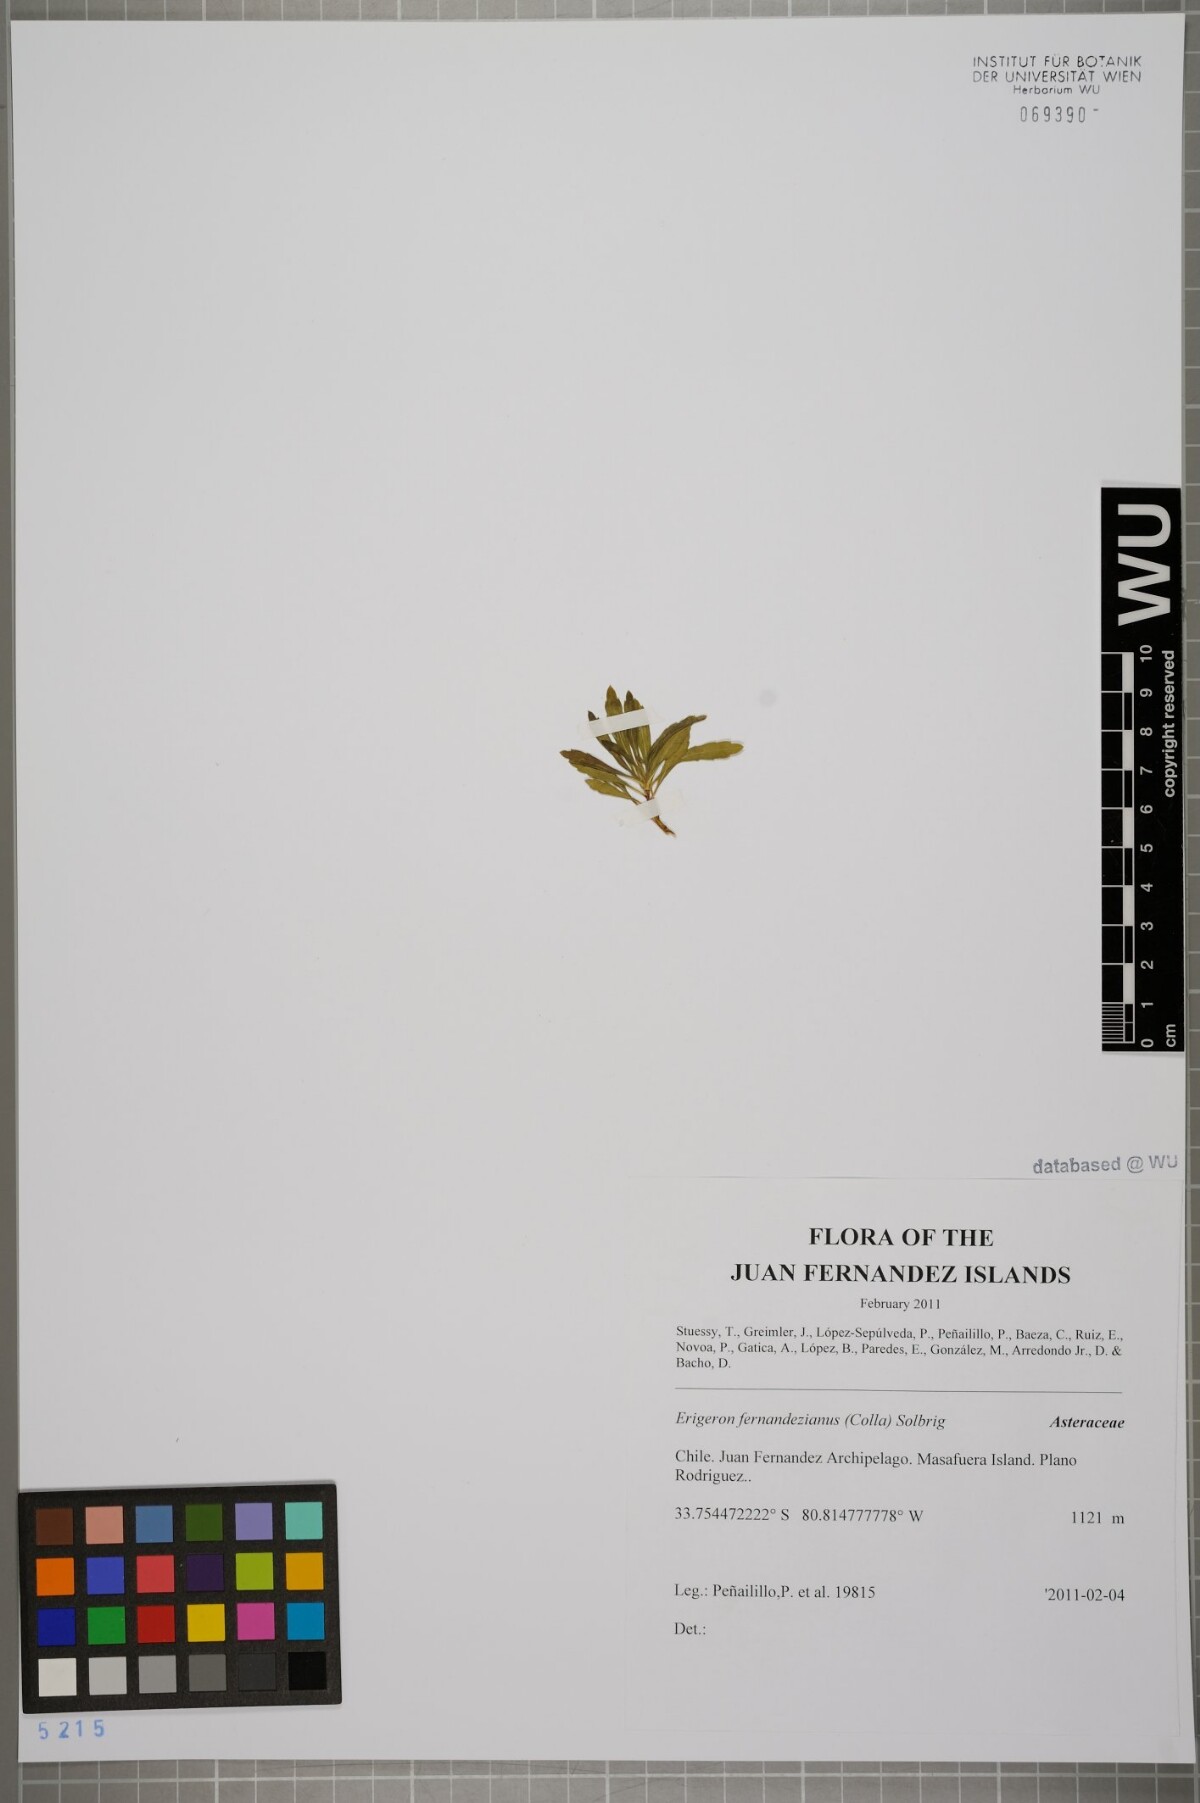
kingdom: Plantae
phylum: Tracheophyta
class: Magnoliopsida
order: Asterales
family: Asteraceae
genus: Erigeron
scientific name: Erigeron fernandezianus
